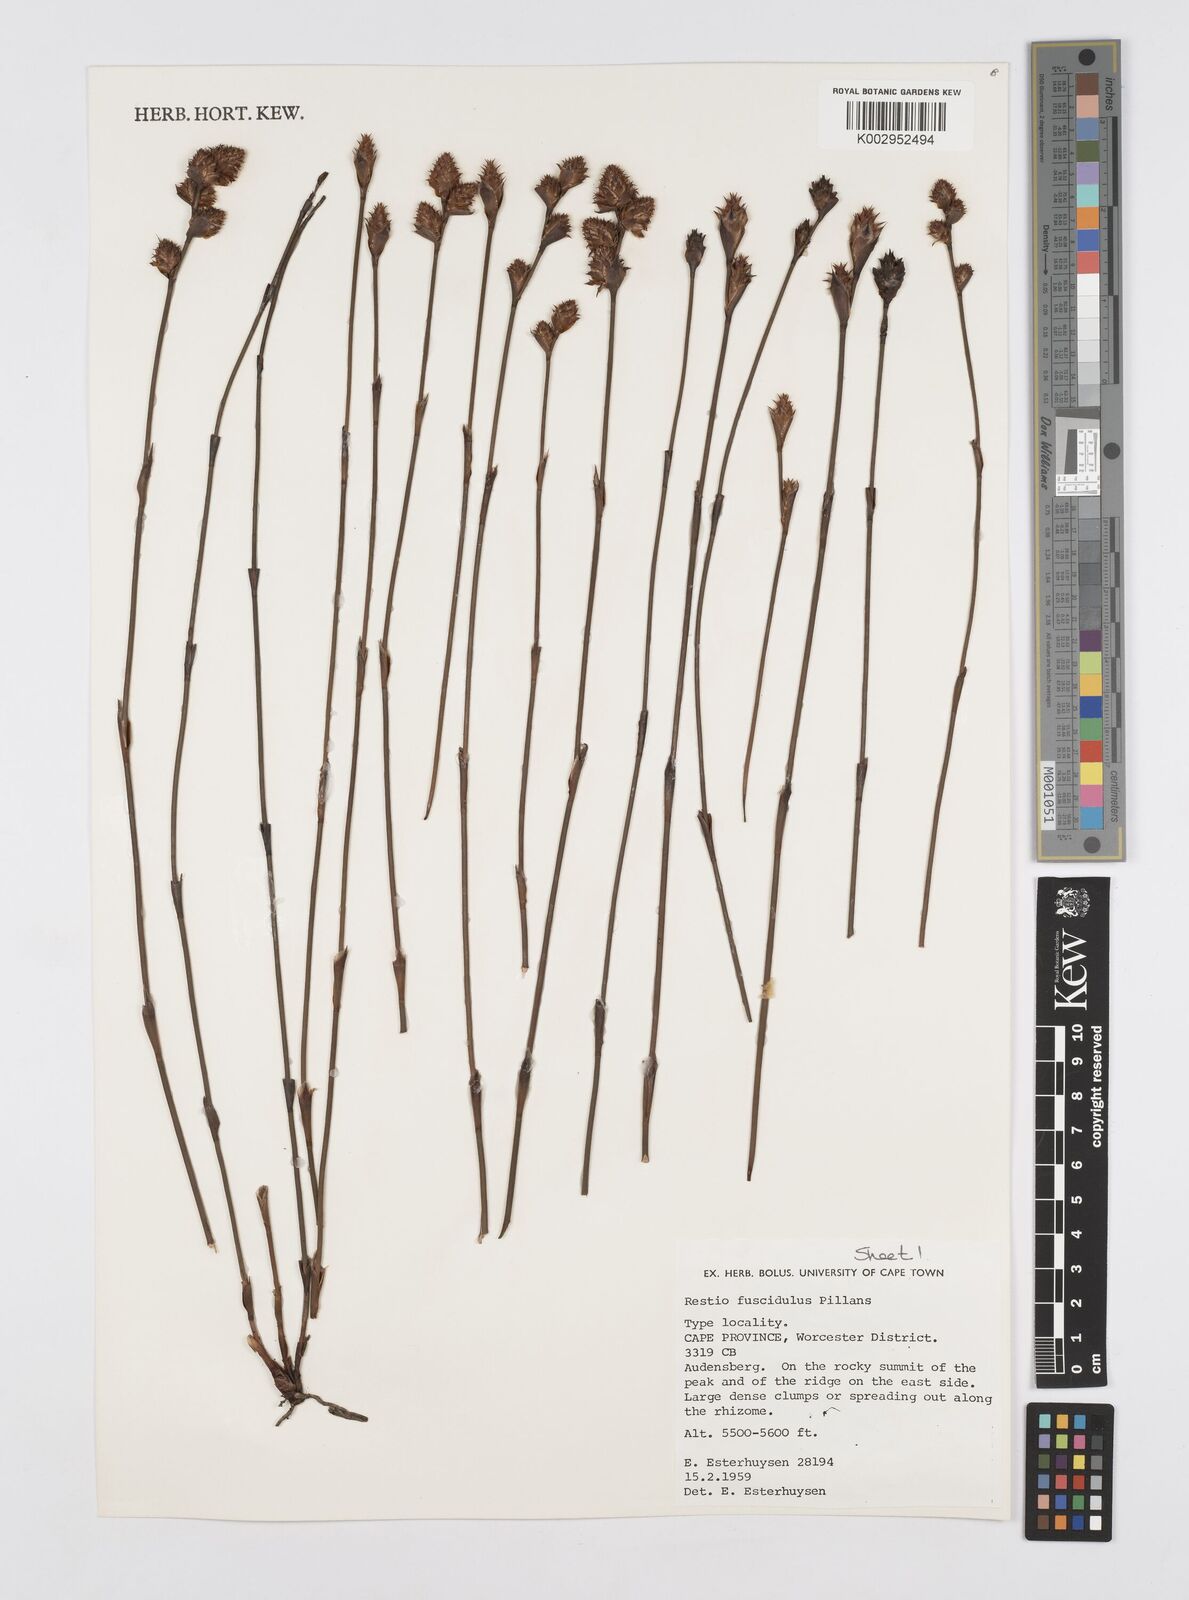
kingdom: Plantae
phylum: Tracheophyta
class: Liliopsida
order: Poales
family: Restionaceae
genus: Restio
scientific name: Restio fuscidulus
